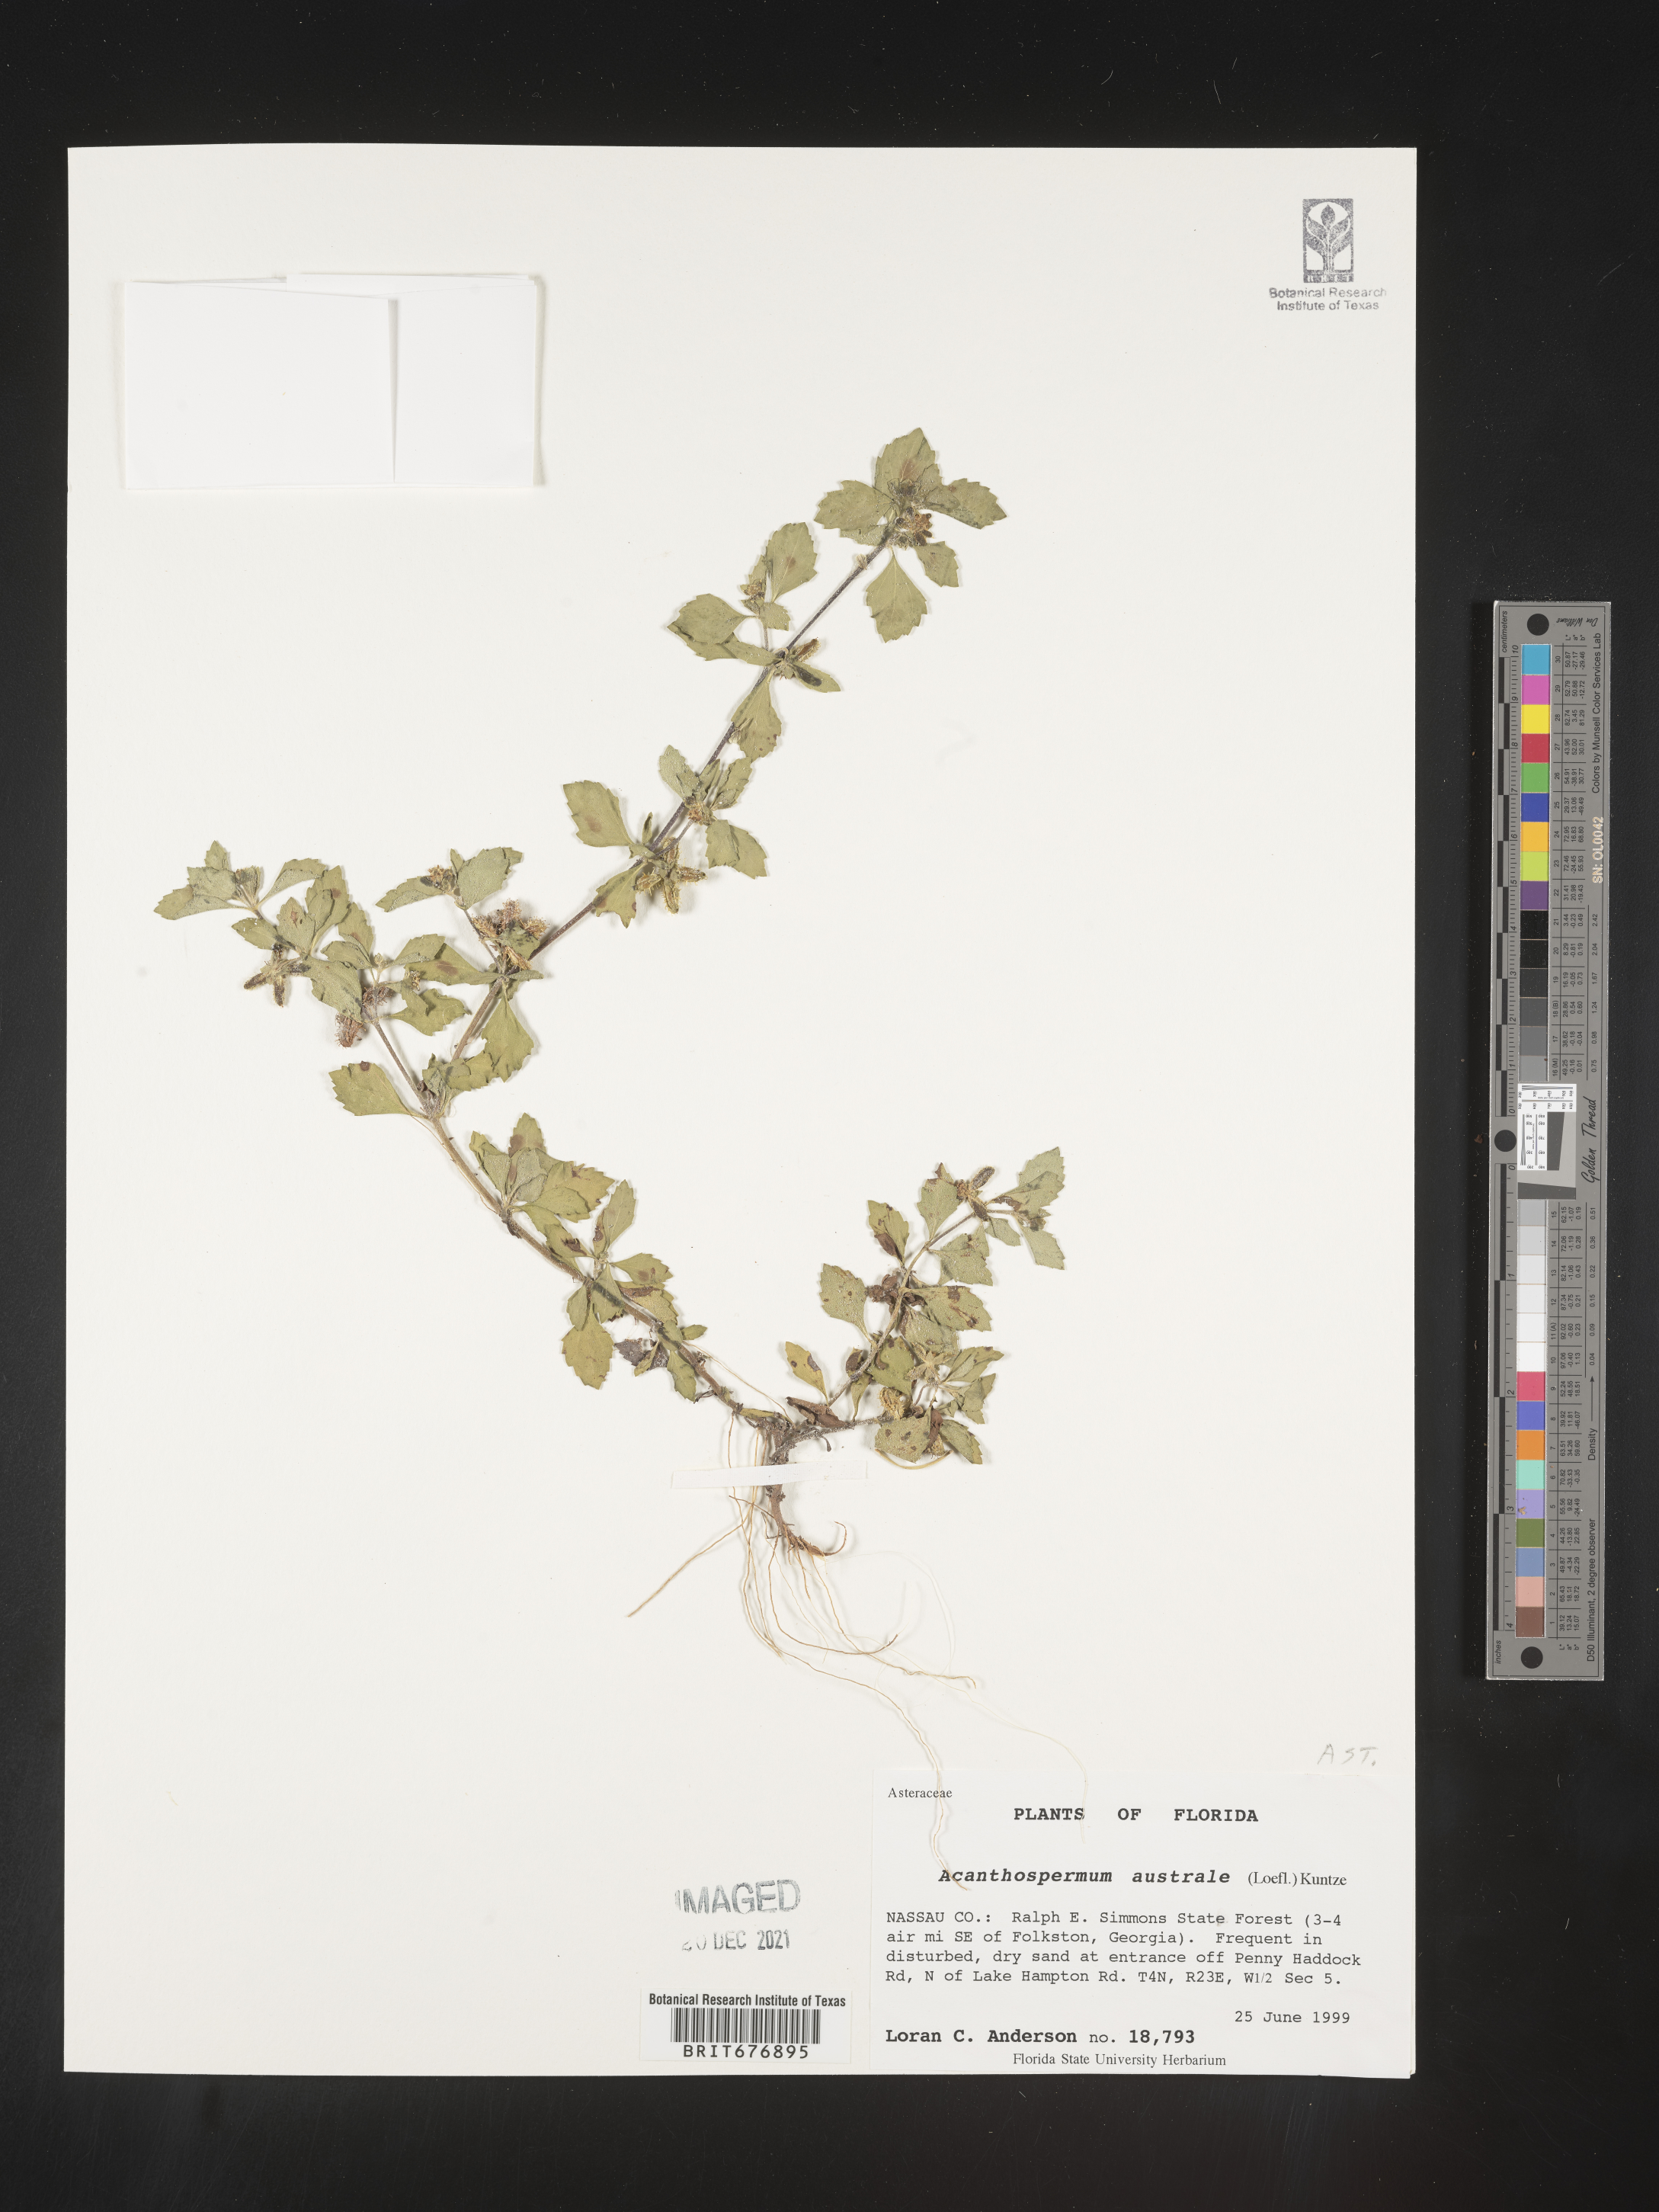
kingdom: Plantae
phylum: Tracheophyta
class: Magnoliopsida
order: Asterales
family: Asteraceae
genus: Acanthospermum
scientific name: Acanthospermum australe
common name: Paraguayan starbur
